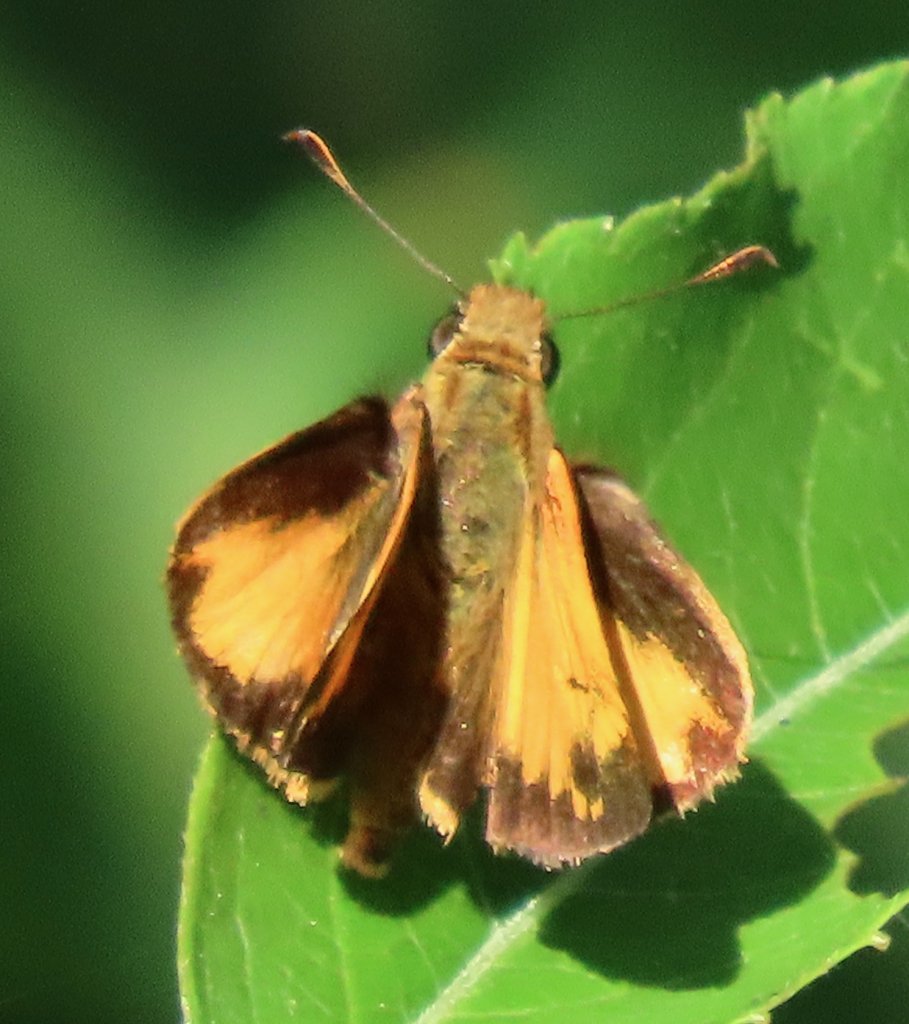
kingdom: Animalia
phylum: Arthropoda
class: Insecta
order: Lepidoptera
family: Hesperiidae
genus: Lon
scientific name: Lon zabulon
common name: Zabulon Skipper
